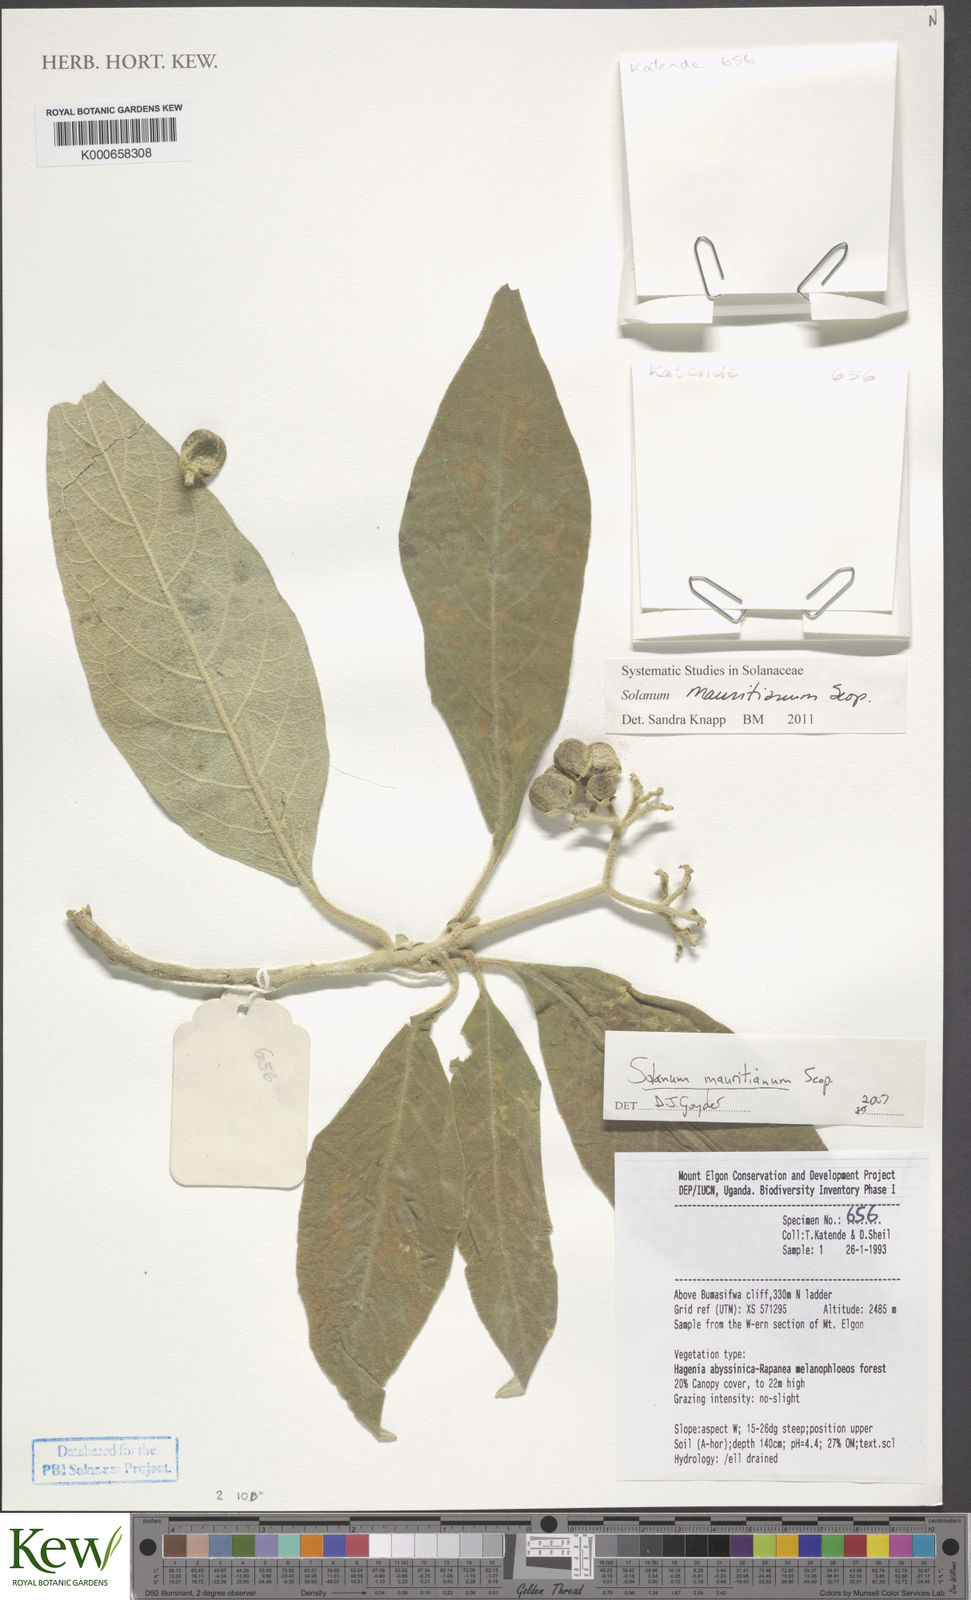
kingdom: Plantae
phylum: Tracheophyta
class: Magnoliopsida
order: Solanales
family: Solanaceae
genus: Solanum
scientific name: Solanum mauritianum
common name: Earleaf nightshade
